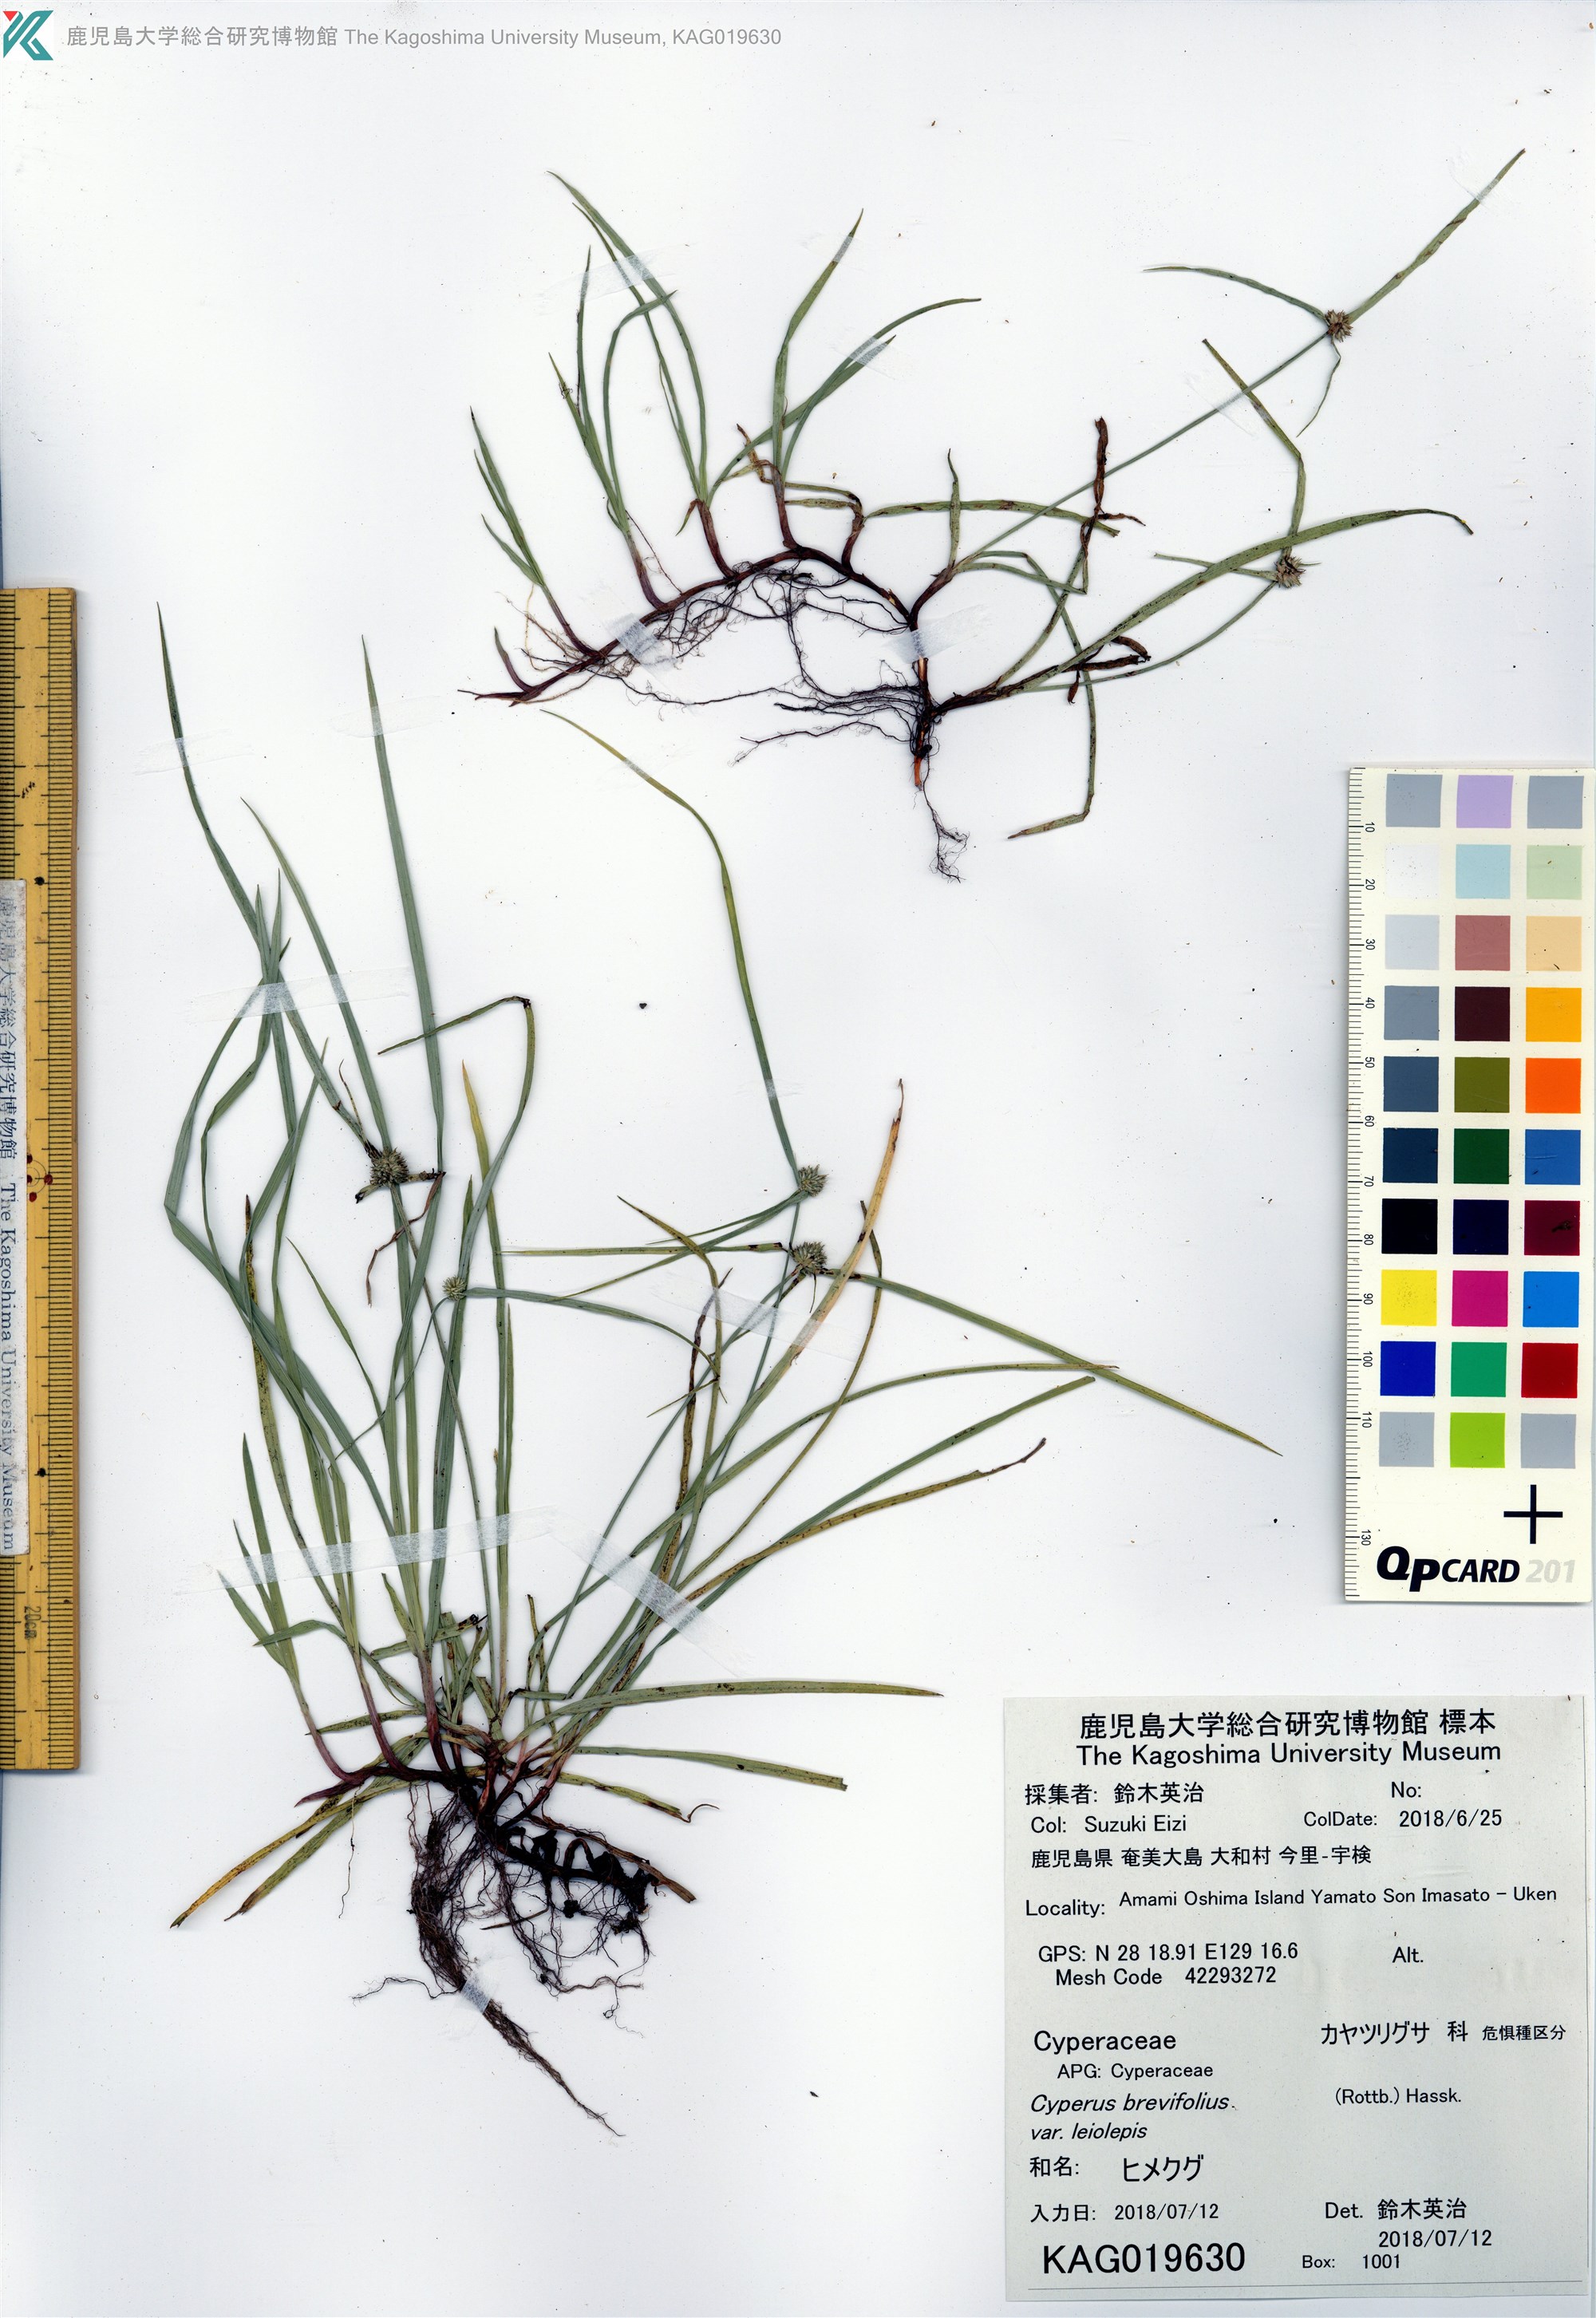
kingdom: Plantae
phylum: Tracheophyta
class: Liliopsida
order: Poales
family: Cyperaceae
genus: Cyperus
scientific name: Cyperus brevifolioides
